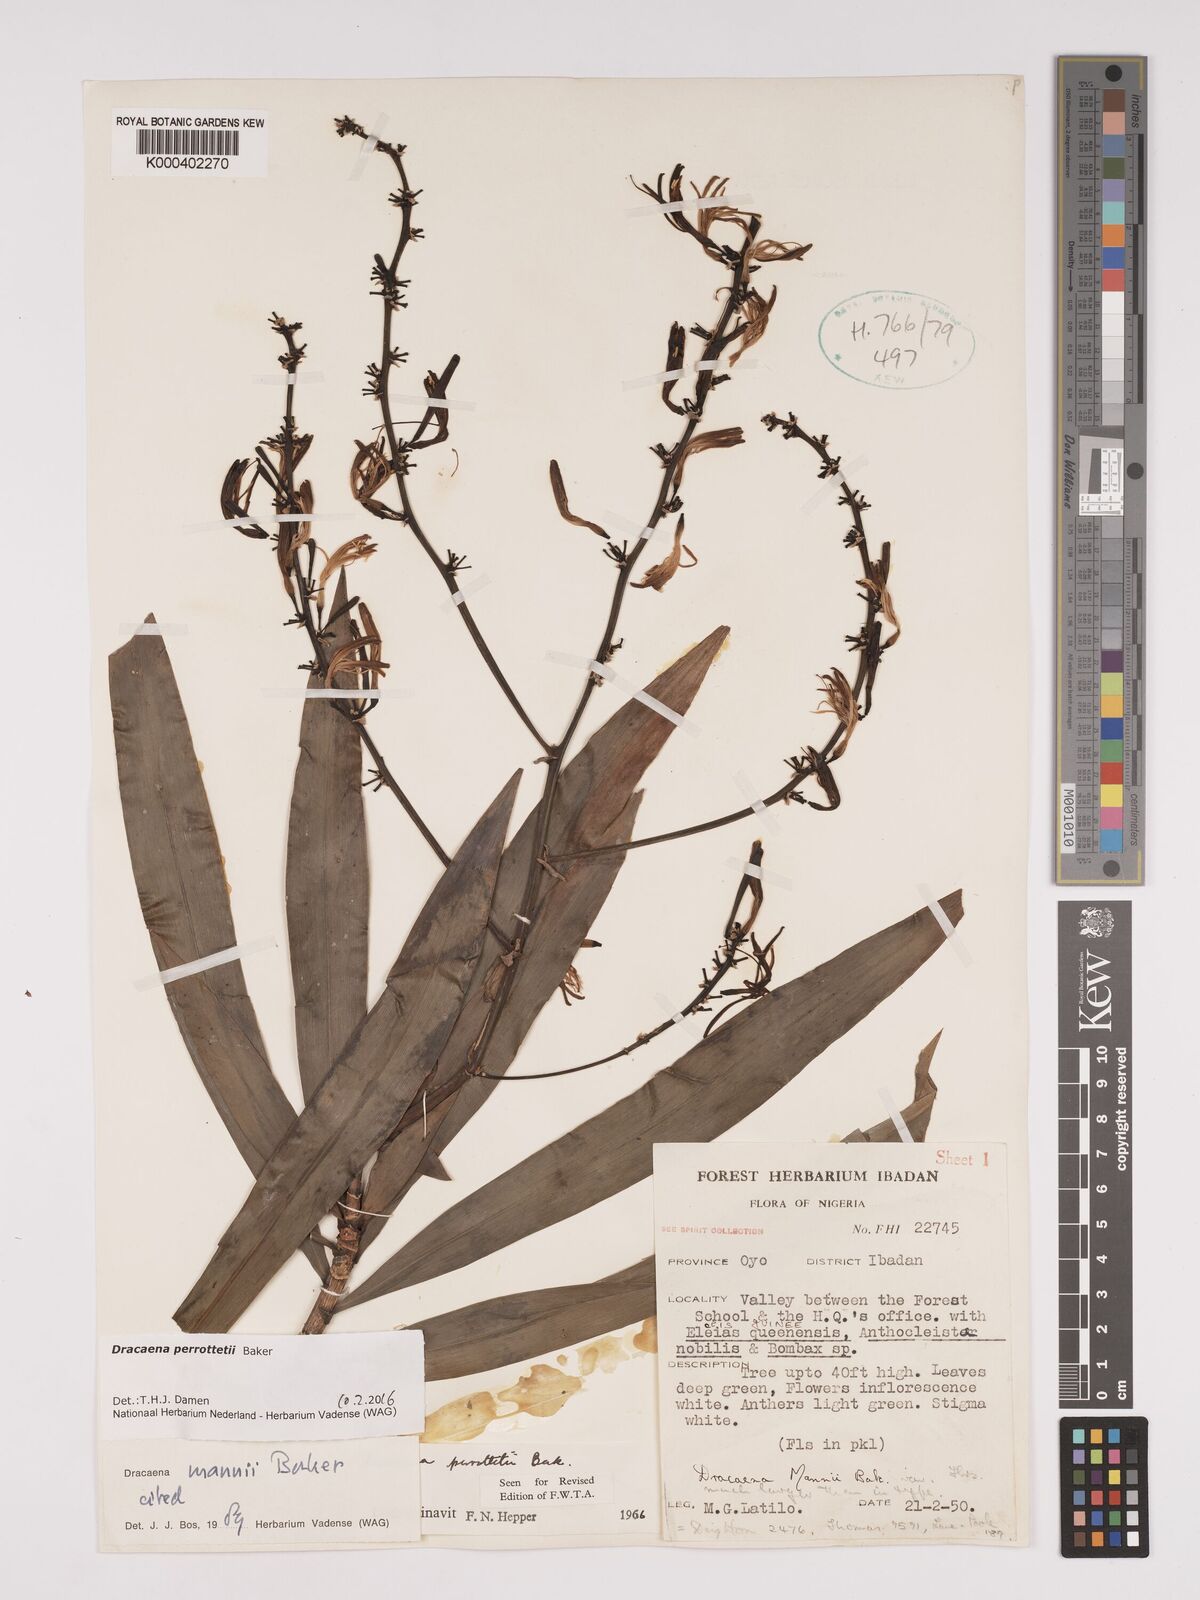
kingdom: Plantae
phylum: Tracheophyta
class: Liliopsida
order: Asparagales
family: Asparagaceae
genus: Dracaena
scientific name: Dracaena perrottetii
